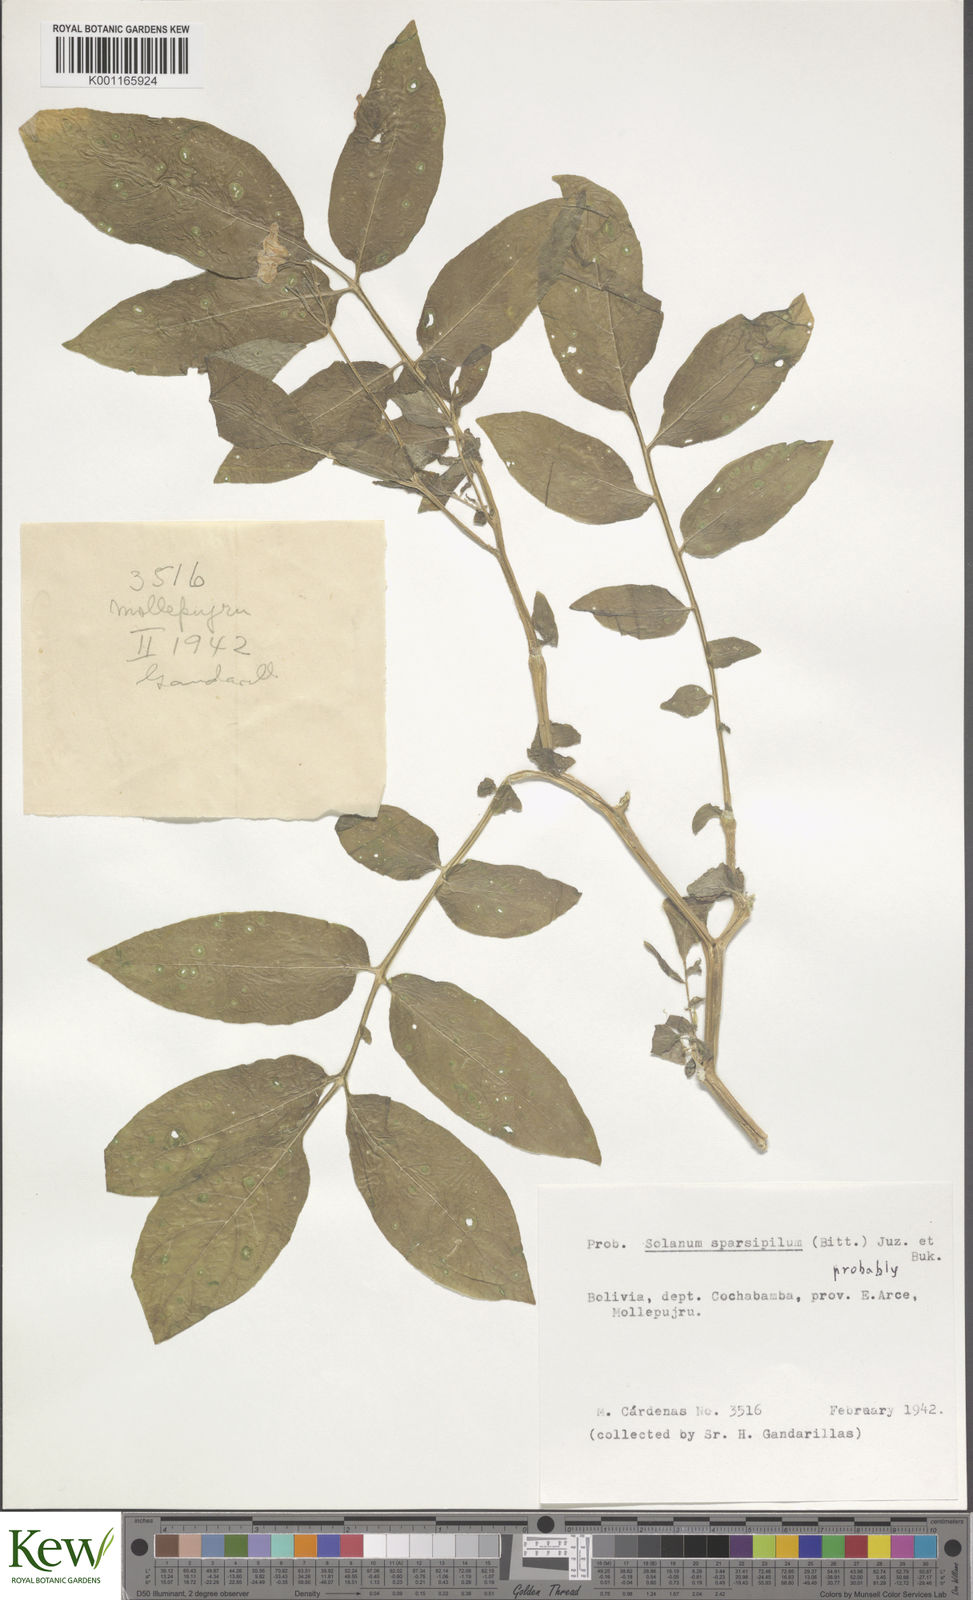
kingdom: Plantae
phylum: Tracheophyta
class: Magnoliopsida
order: Solanales
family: Solanaceae
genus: Solanum
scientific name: Solanum brevicaule
